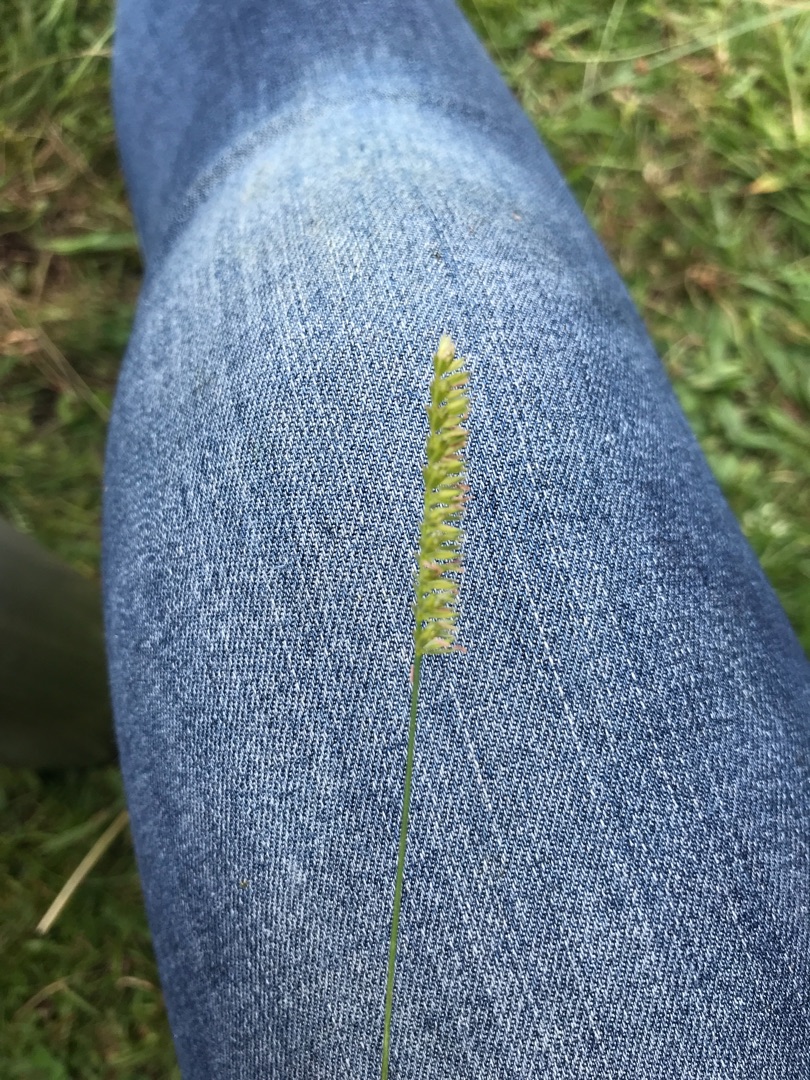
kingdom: Plantae
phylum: Tracheophyta
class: Liliopsida
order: Poales
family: Poaceae
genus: Cynosurus
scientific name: Cynosurus cristatus
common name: Kamgræs
